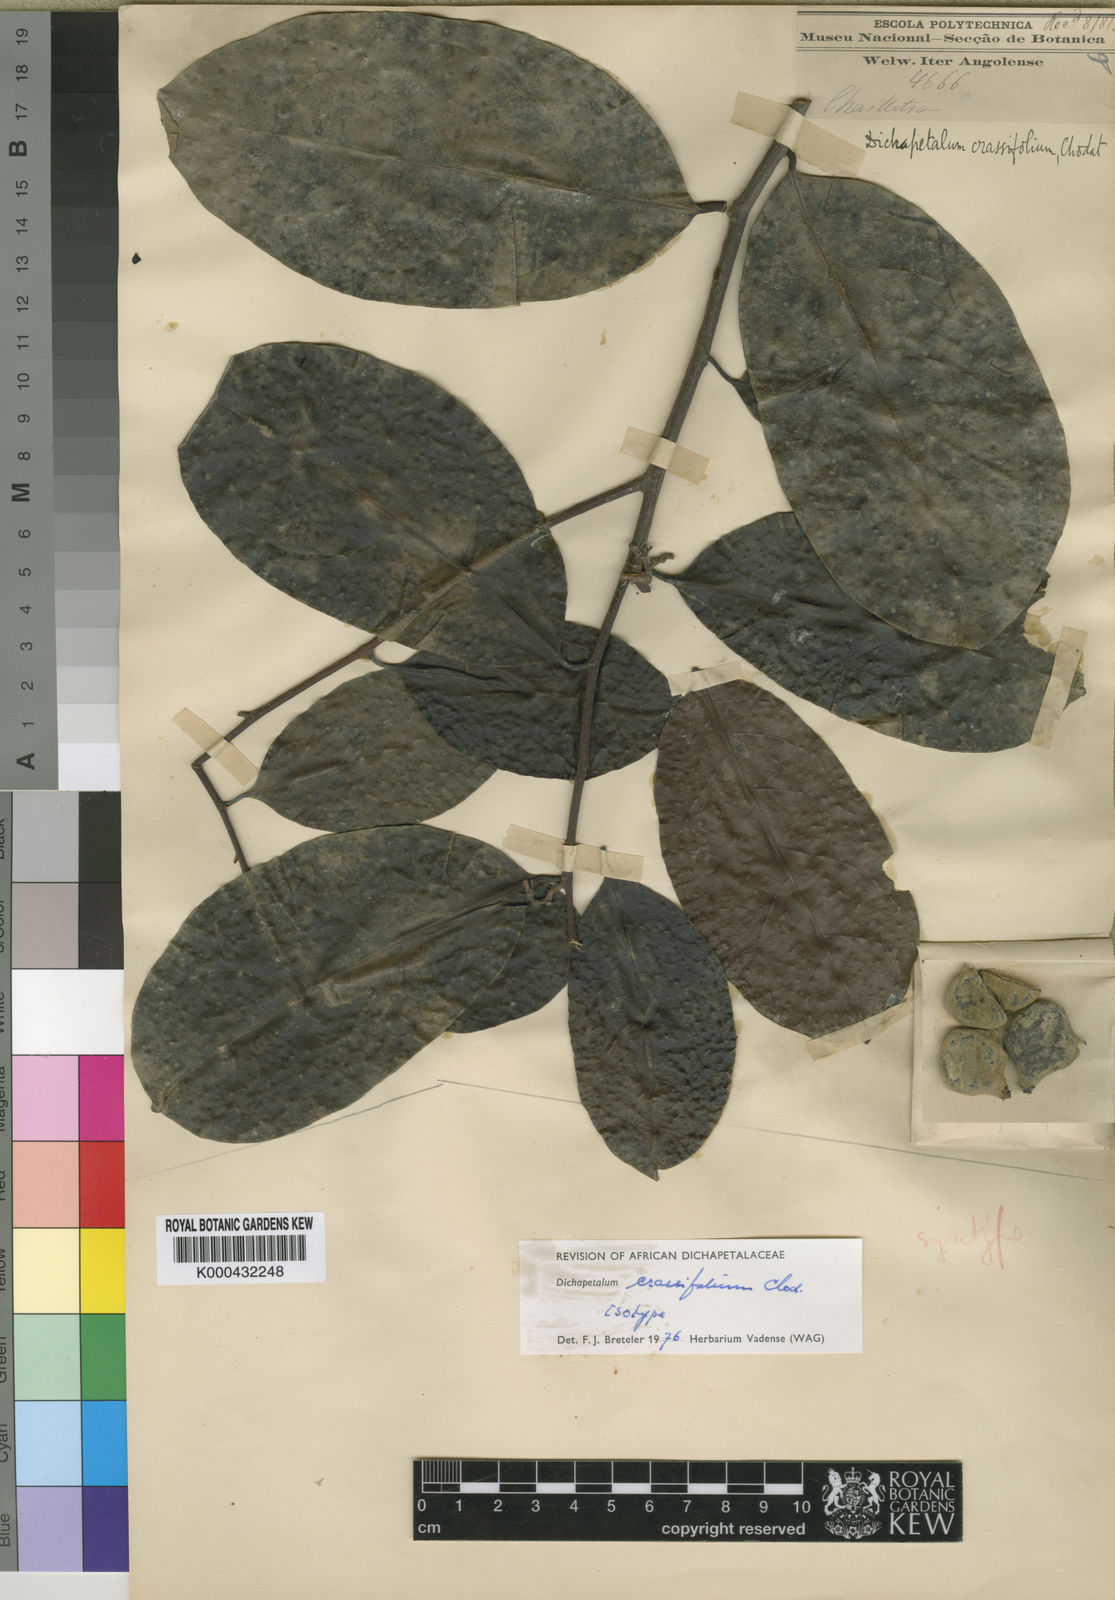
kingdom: Plantae
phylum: Tracheophyta
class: Magnoliopsida
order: Malpighiales
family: Dichapetalaceae
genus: Dichapetalum
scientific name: Dichapetalum crassifolium
